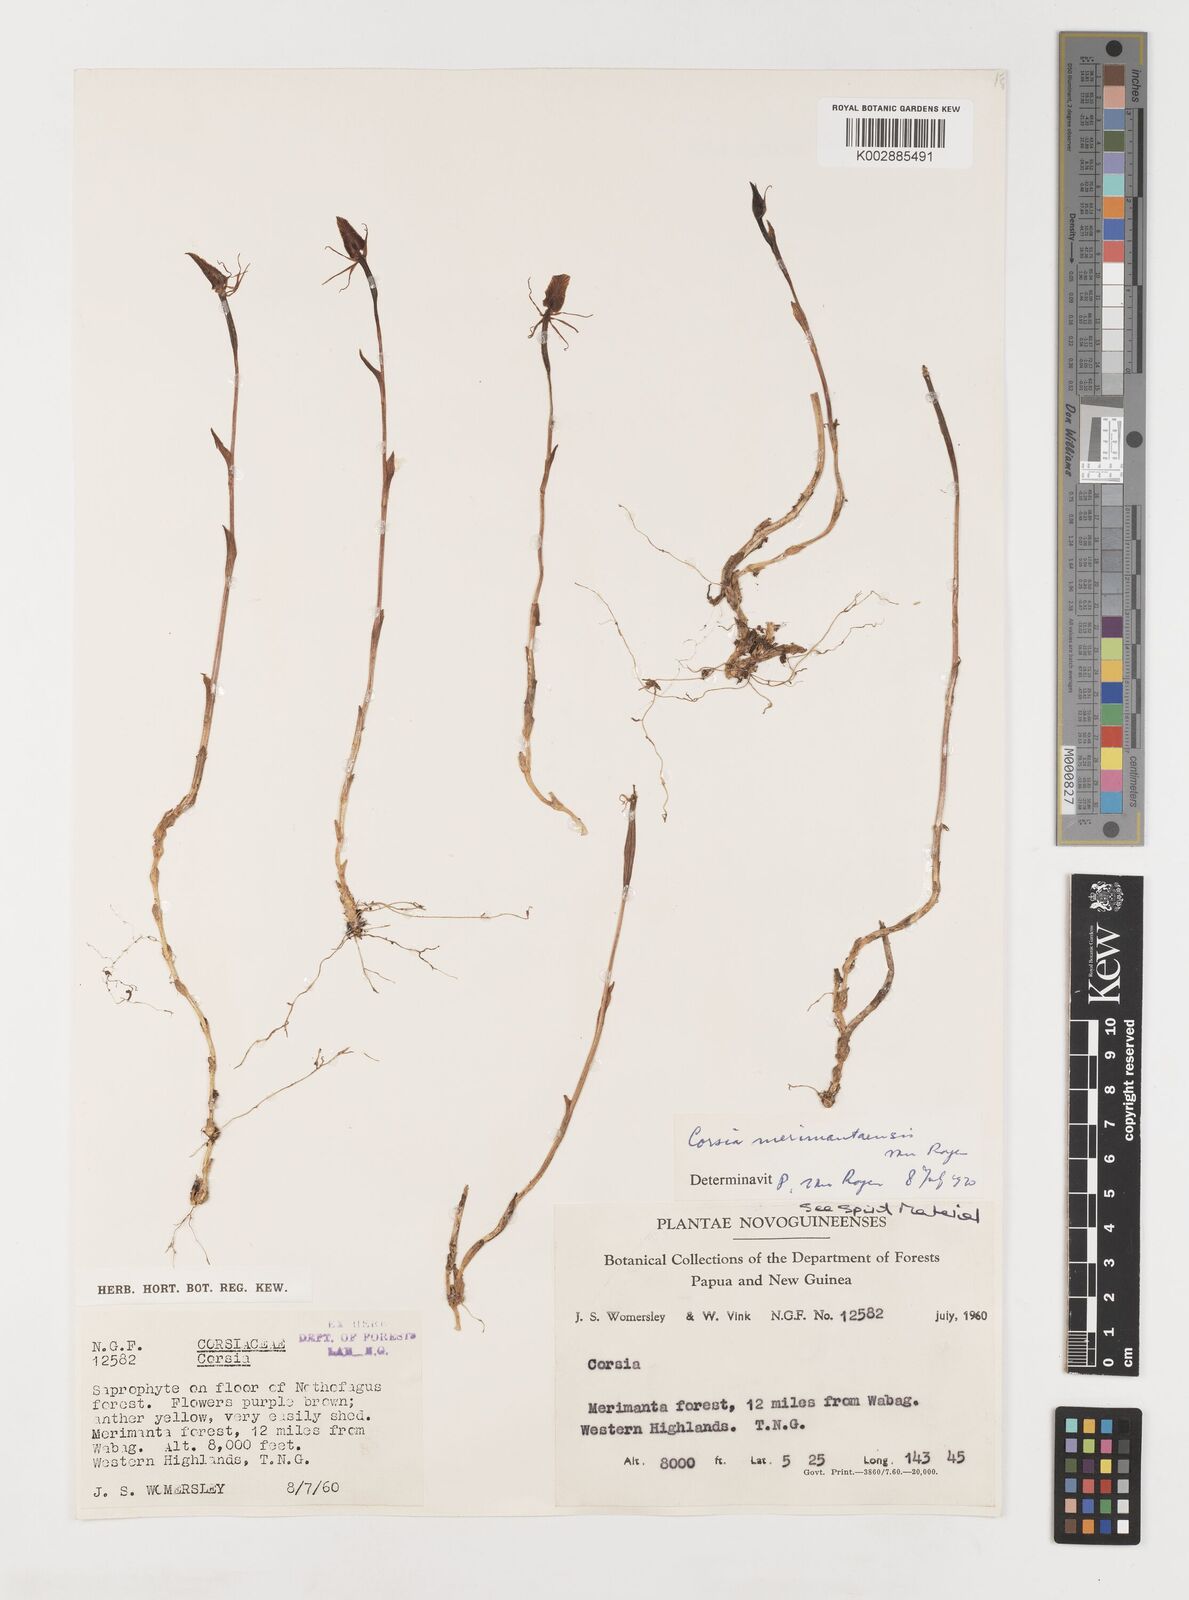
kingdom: Plantae
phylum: Tracheophyta
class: Liliopsida
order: Liliales
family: Corsiaceae
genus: Corsia
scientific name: Corsia merimantaensis
